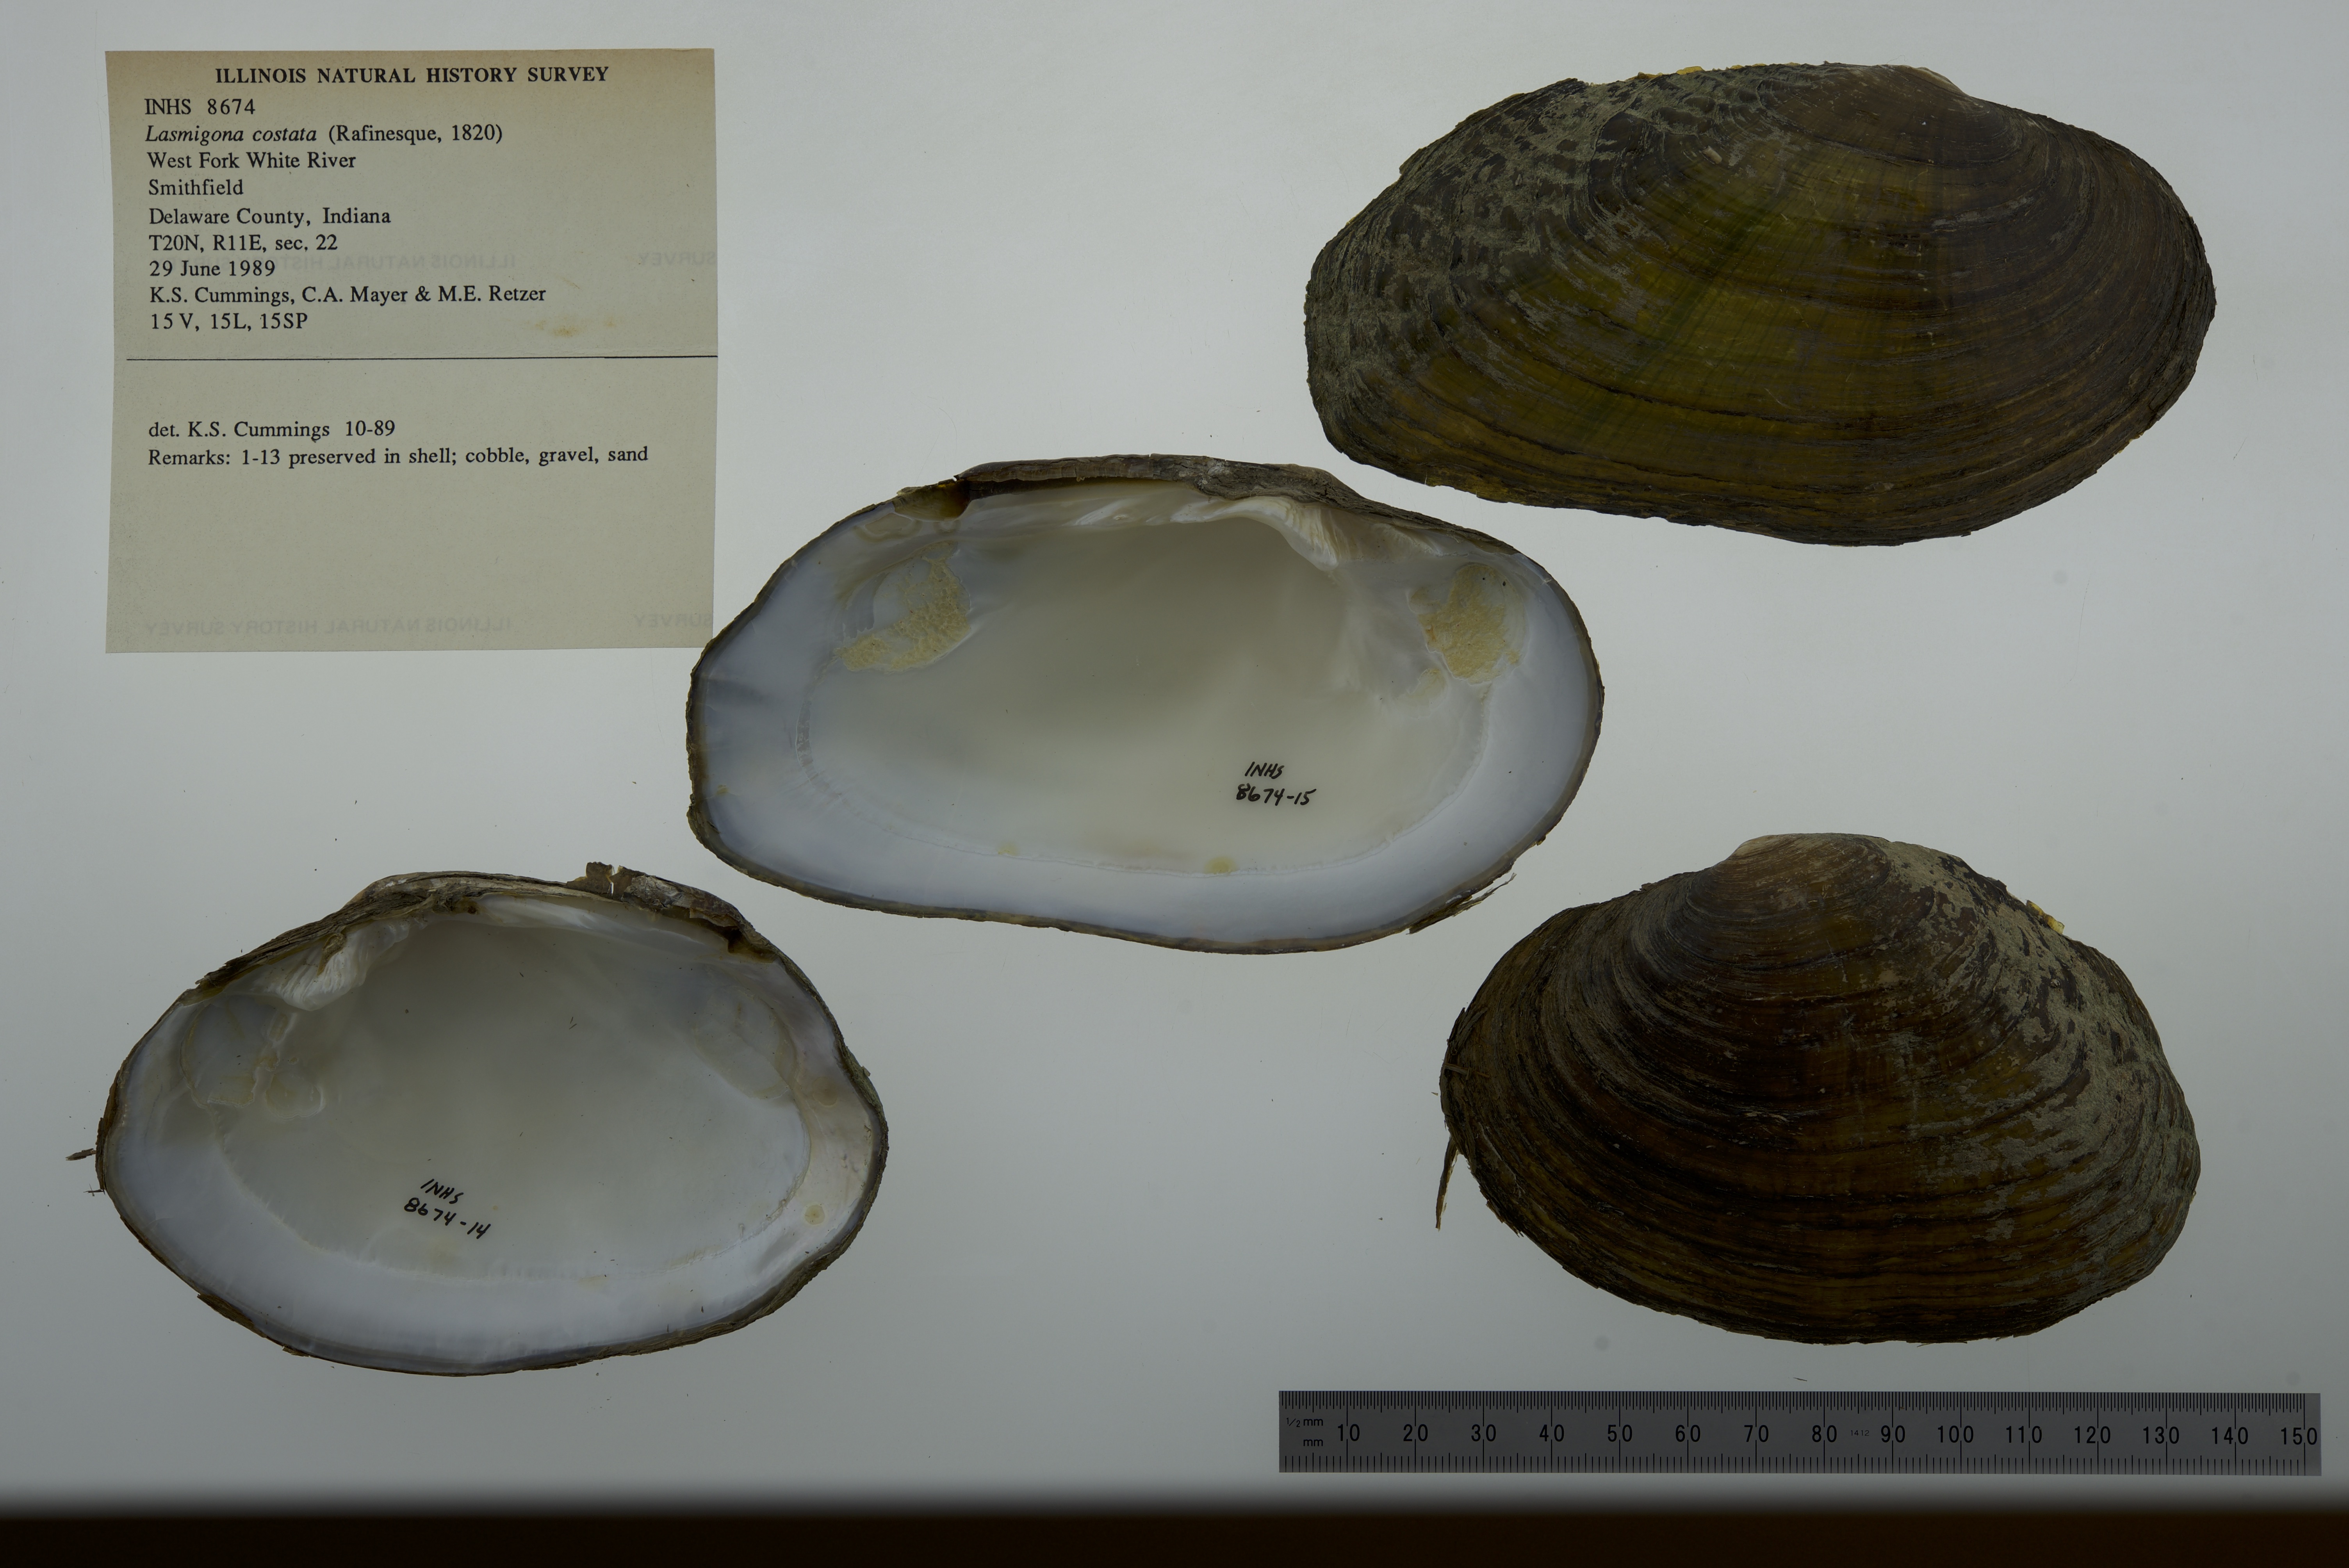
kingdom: Animalia
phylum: Mollusca
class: Bivalvia
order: Unionida
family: Unionidae
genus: Lasmigona
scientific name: Lasmigona costata
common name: Flutedshell
